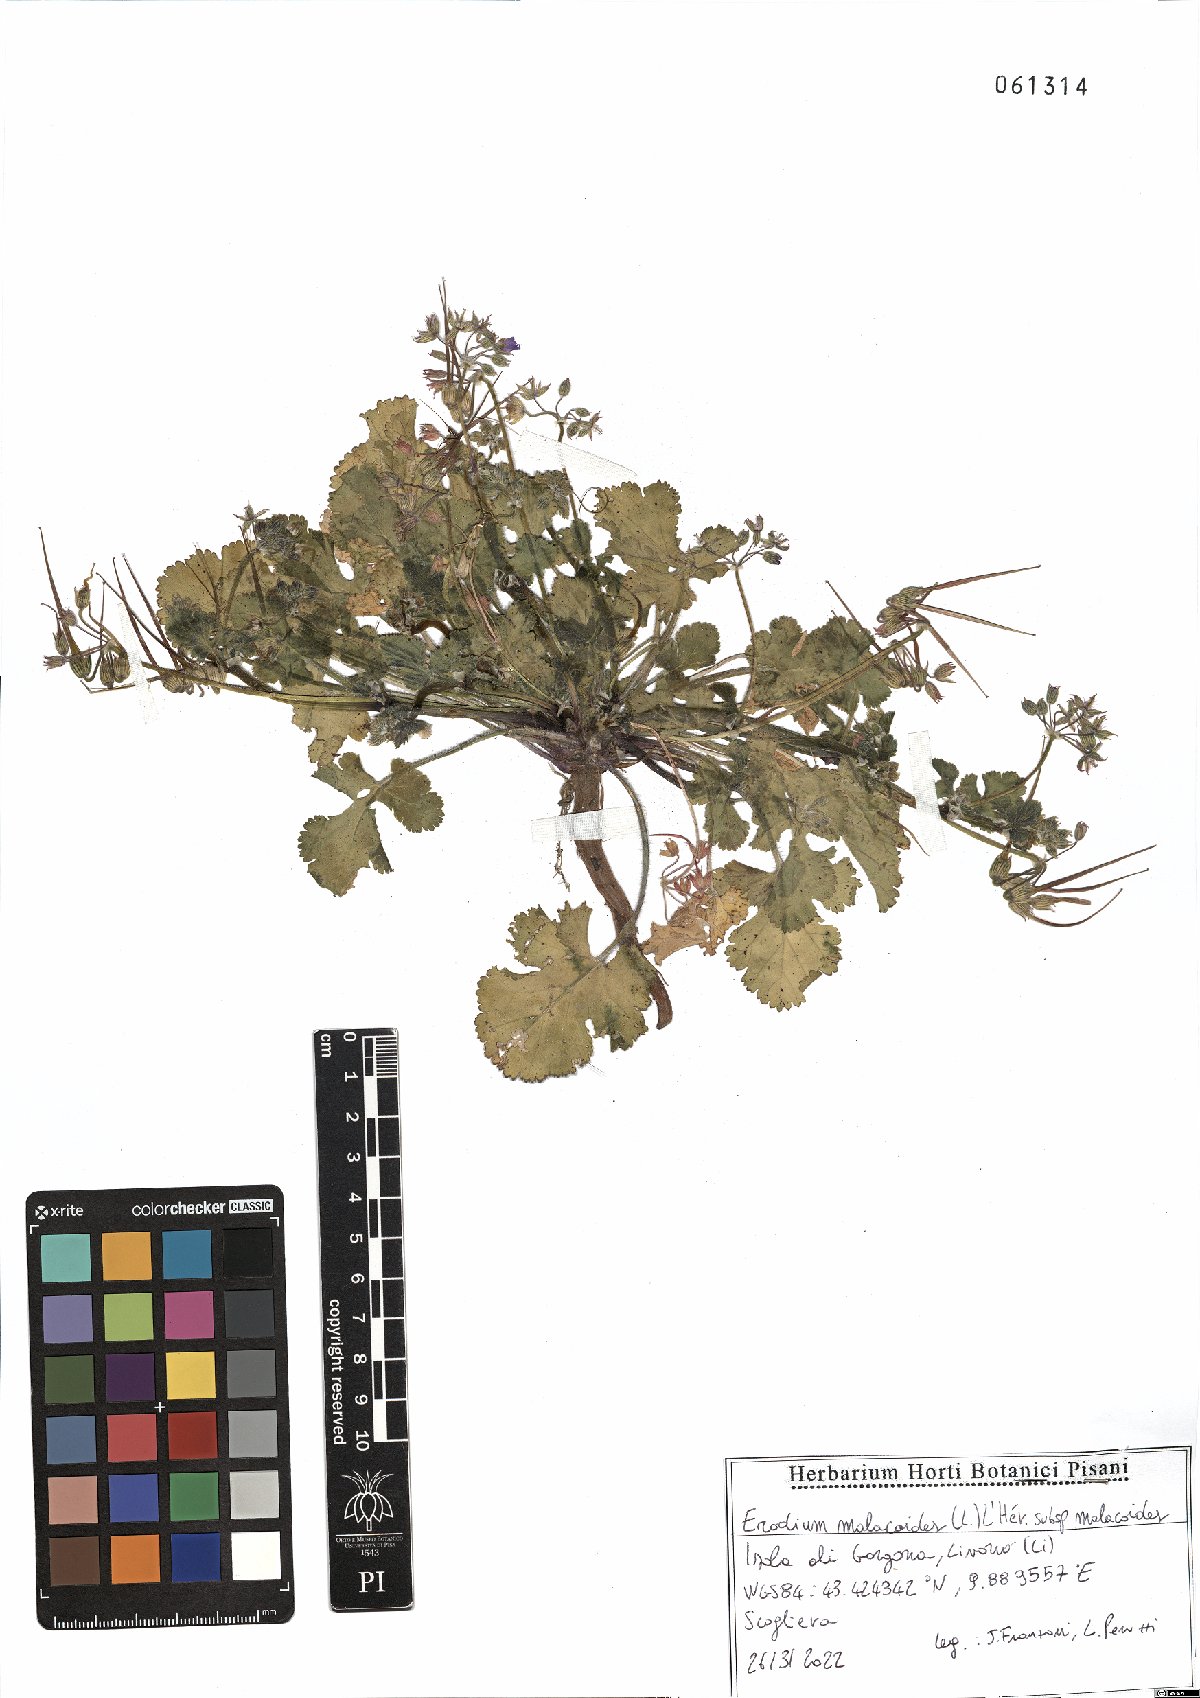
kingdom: Plantae
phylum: Tracheophyta
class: Magnoliopsida
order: Geraniales
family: Geraniaceae
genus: Erodium
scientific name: Erodium malacoides
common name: Soft stork's-bill
